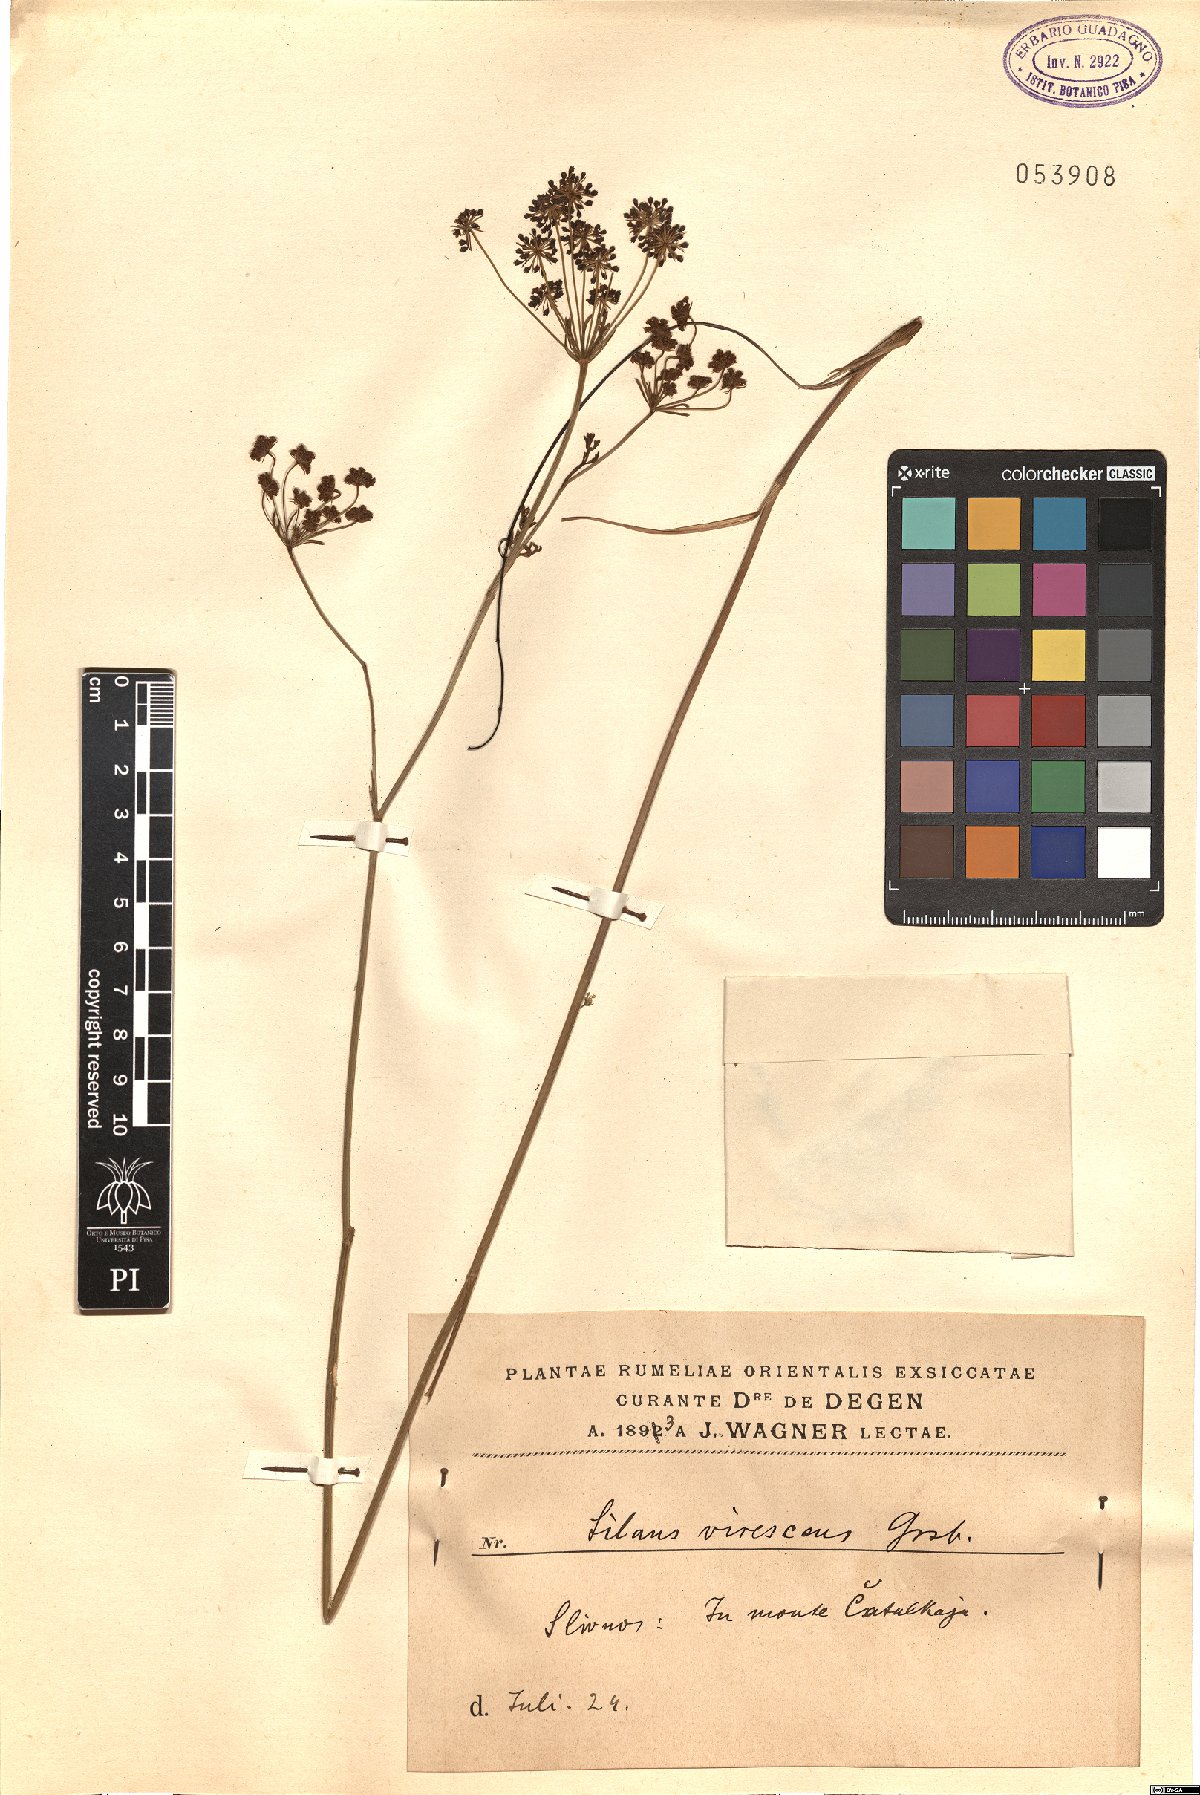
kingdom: Plantae
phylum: Tracheophyta
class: Magnoliopsida
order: Apiales
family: Apiaceae
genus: Gasparinia
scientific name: Gasparinia peucedanoides
